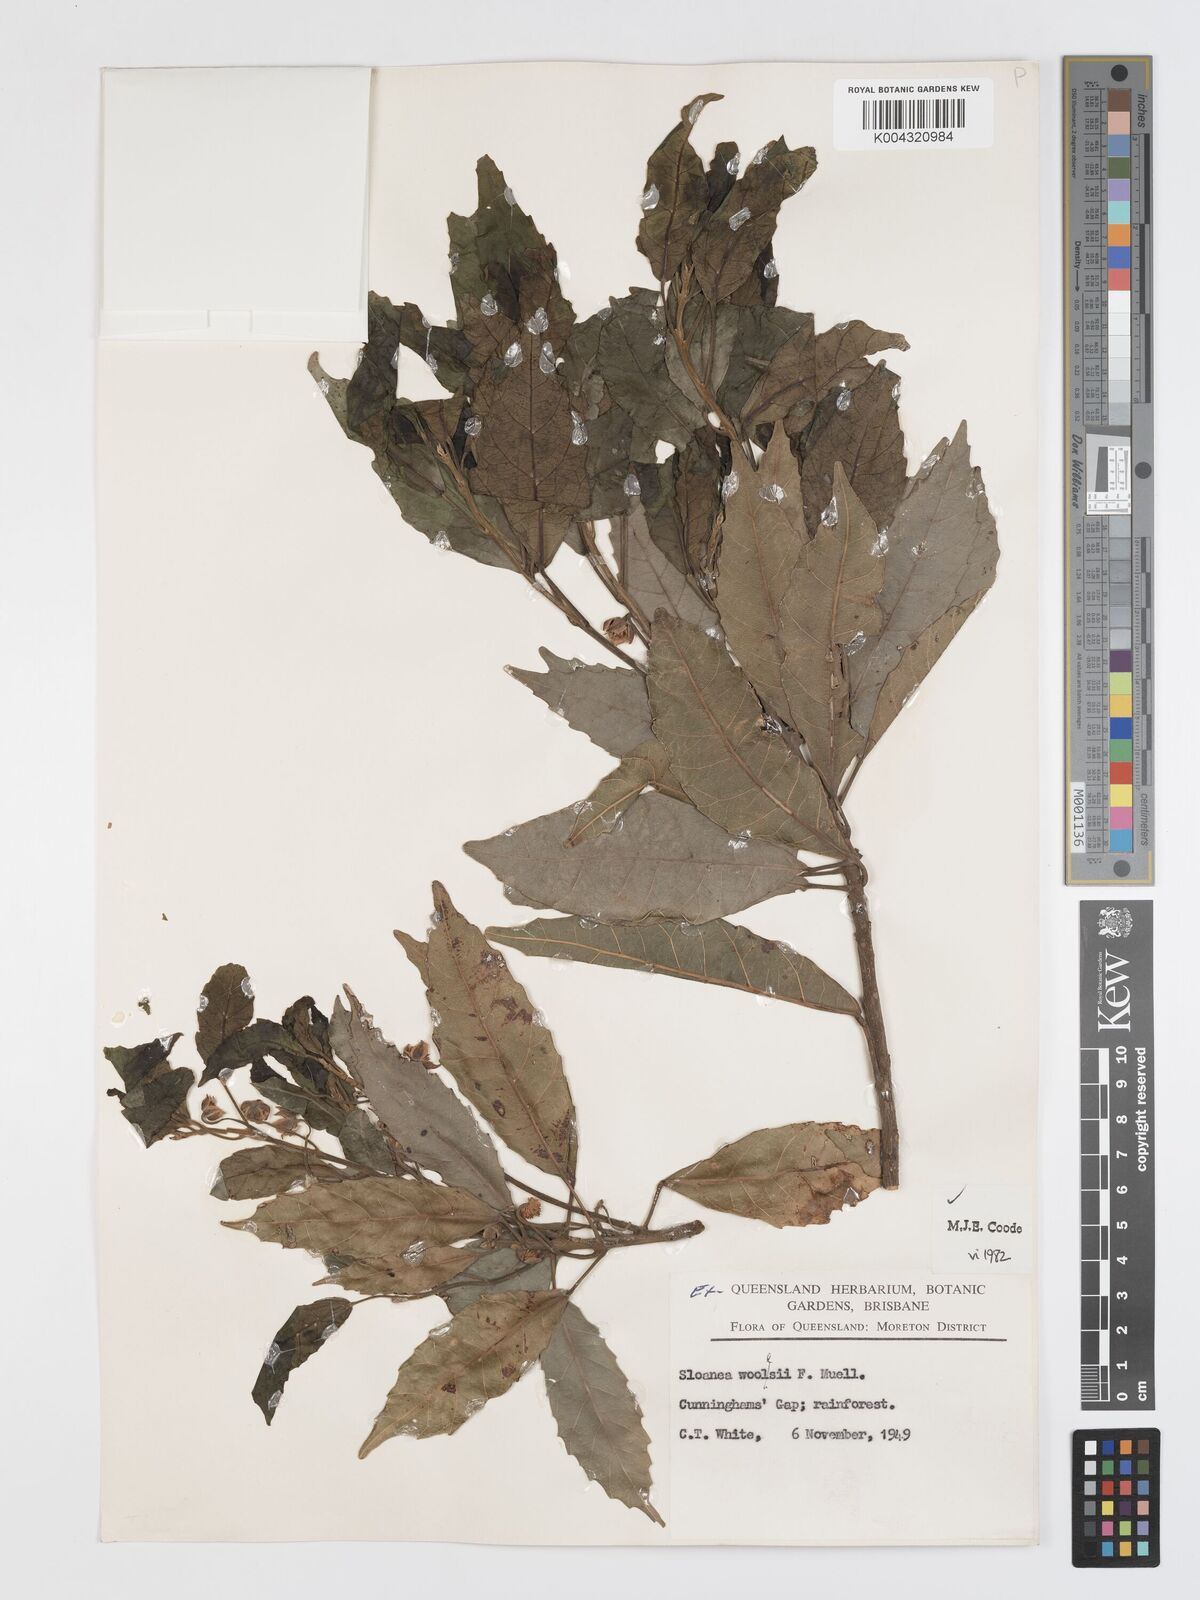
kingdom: Plantae
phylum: Tracheophyta
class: Magnoliopsida
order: Oxalidales
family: Elaeocarpaceae
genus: Sloanea
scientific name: Sloanea woollsii
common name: Yellow carabeen
